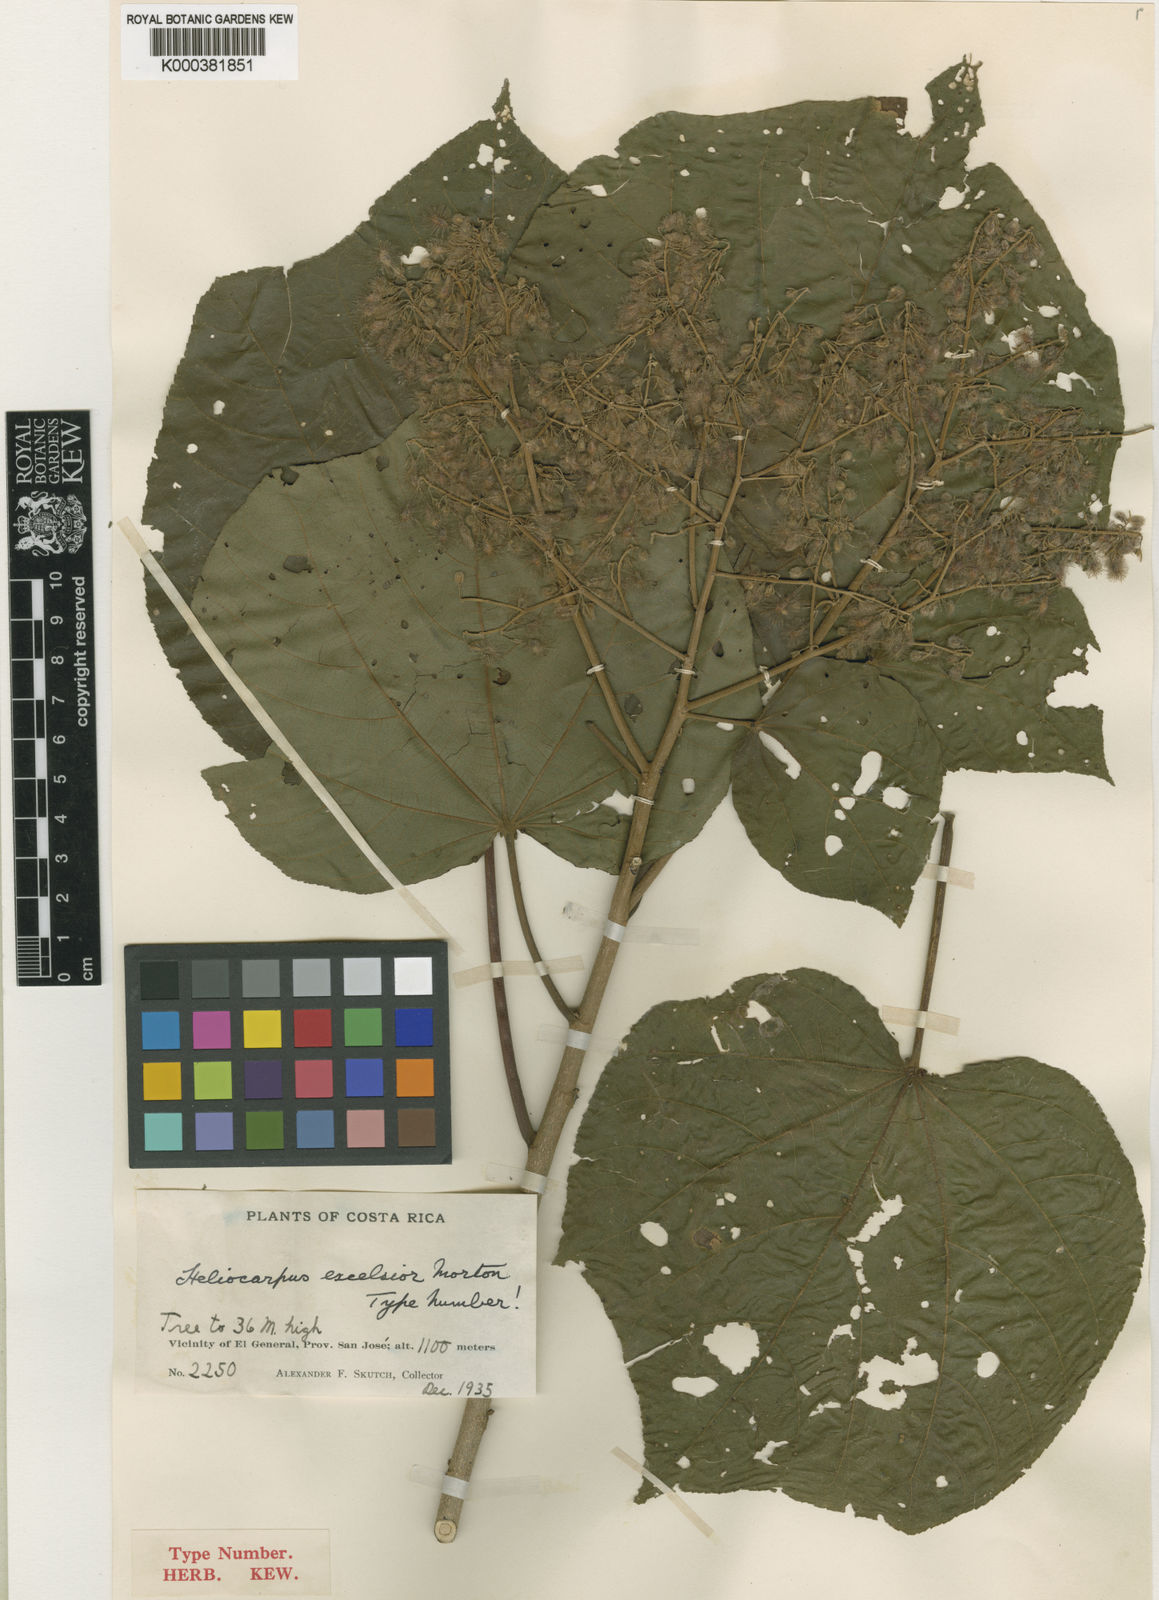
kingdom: Plantae
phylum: Tracheophyta
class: Magnoliopsida
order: Malvales
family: Malvaceae
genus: Heliocarpus
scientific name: Heliocarpus nodiflorus
